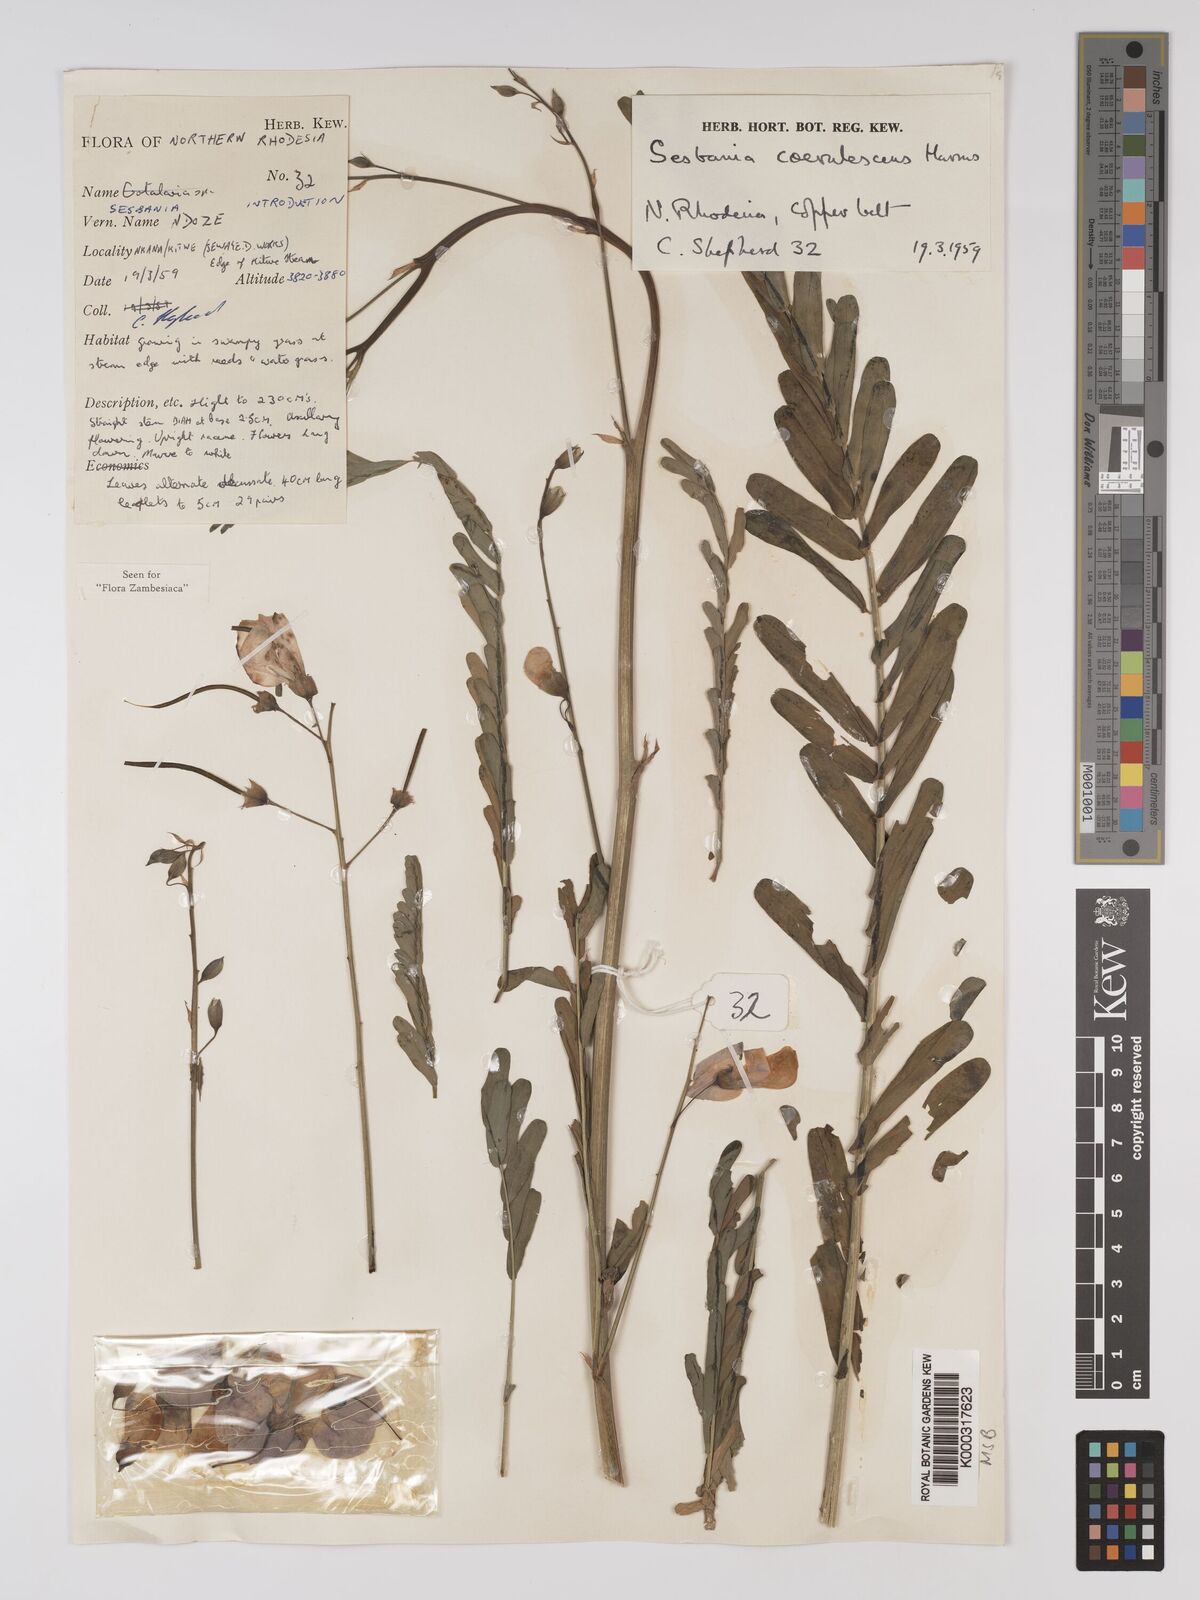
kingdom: Plantae
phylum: Tracheophyta
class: Magnoliopsida
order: Fabales
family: Fabaceae
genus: Sesbania
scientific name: Sesbania coerulescens
